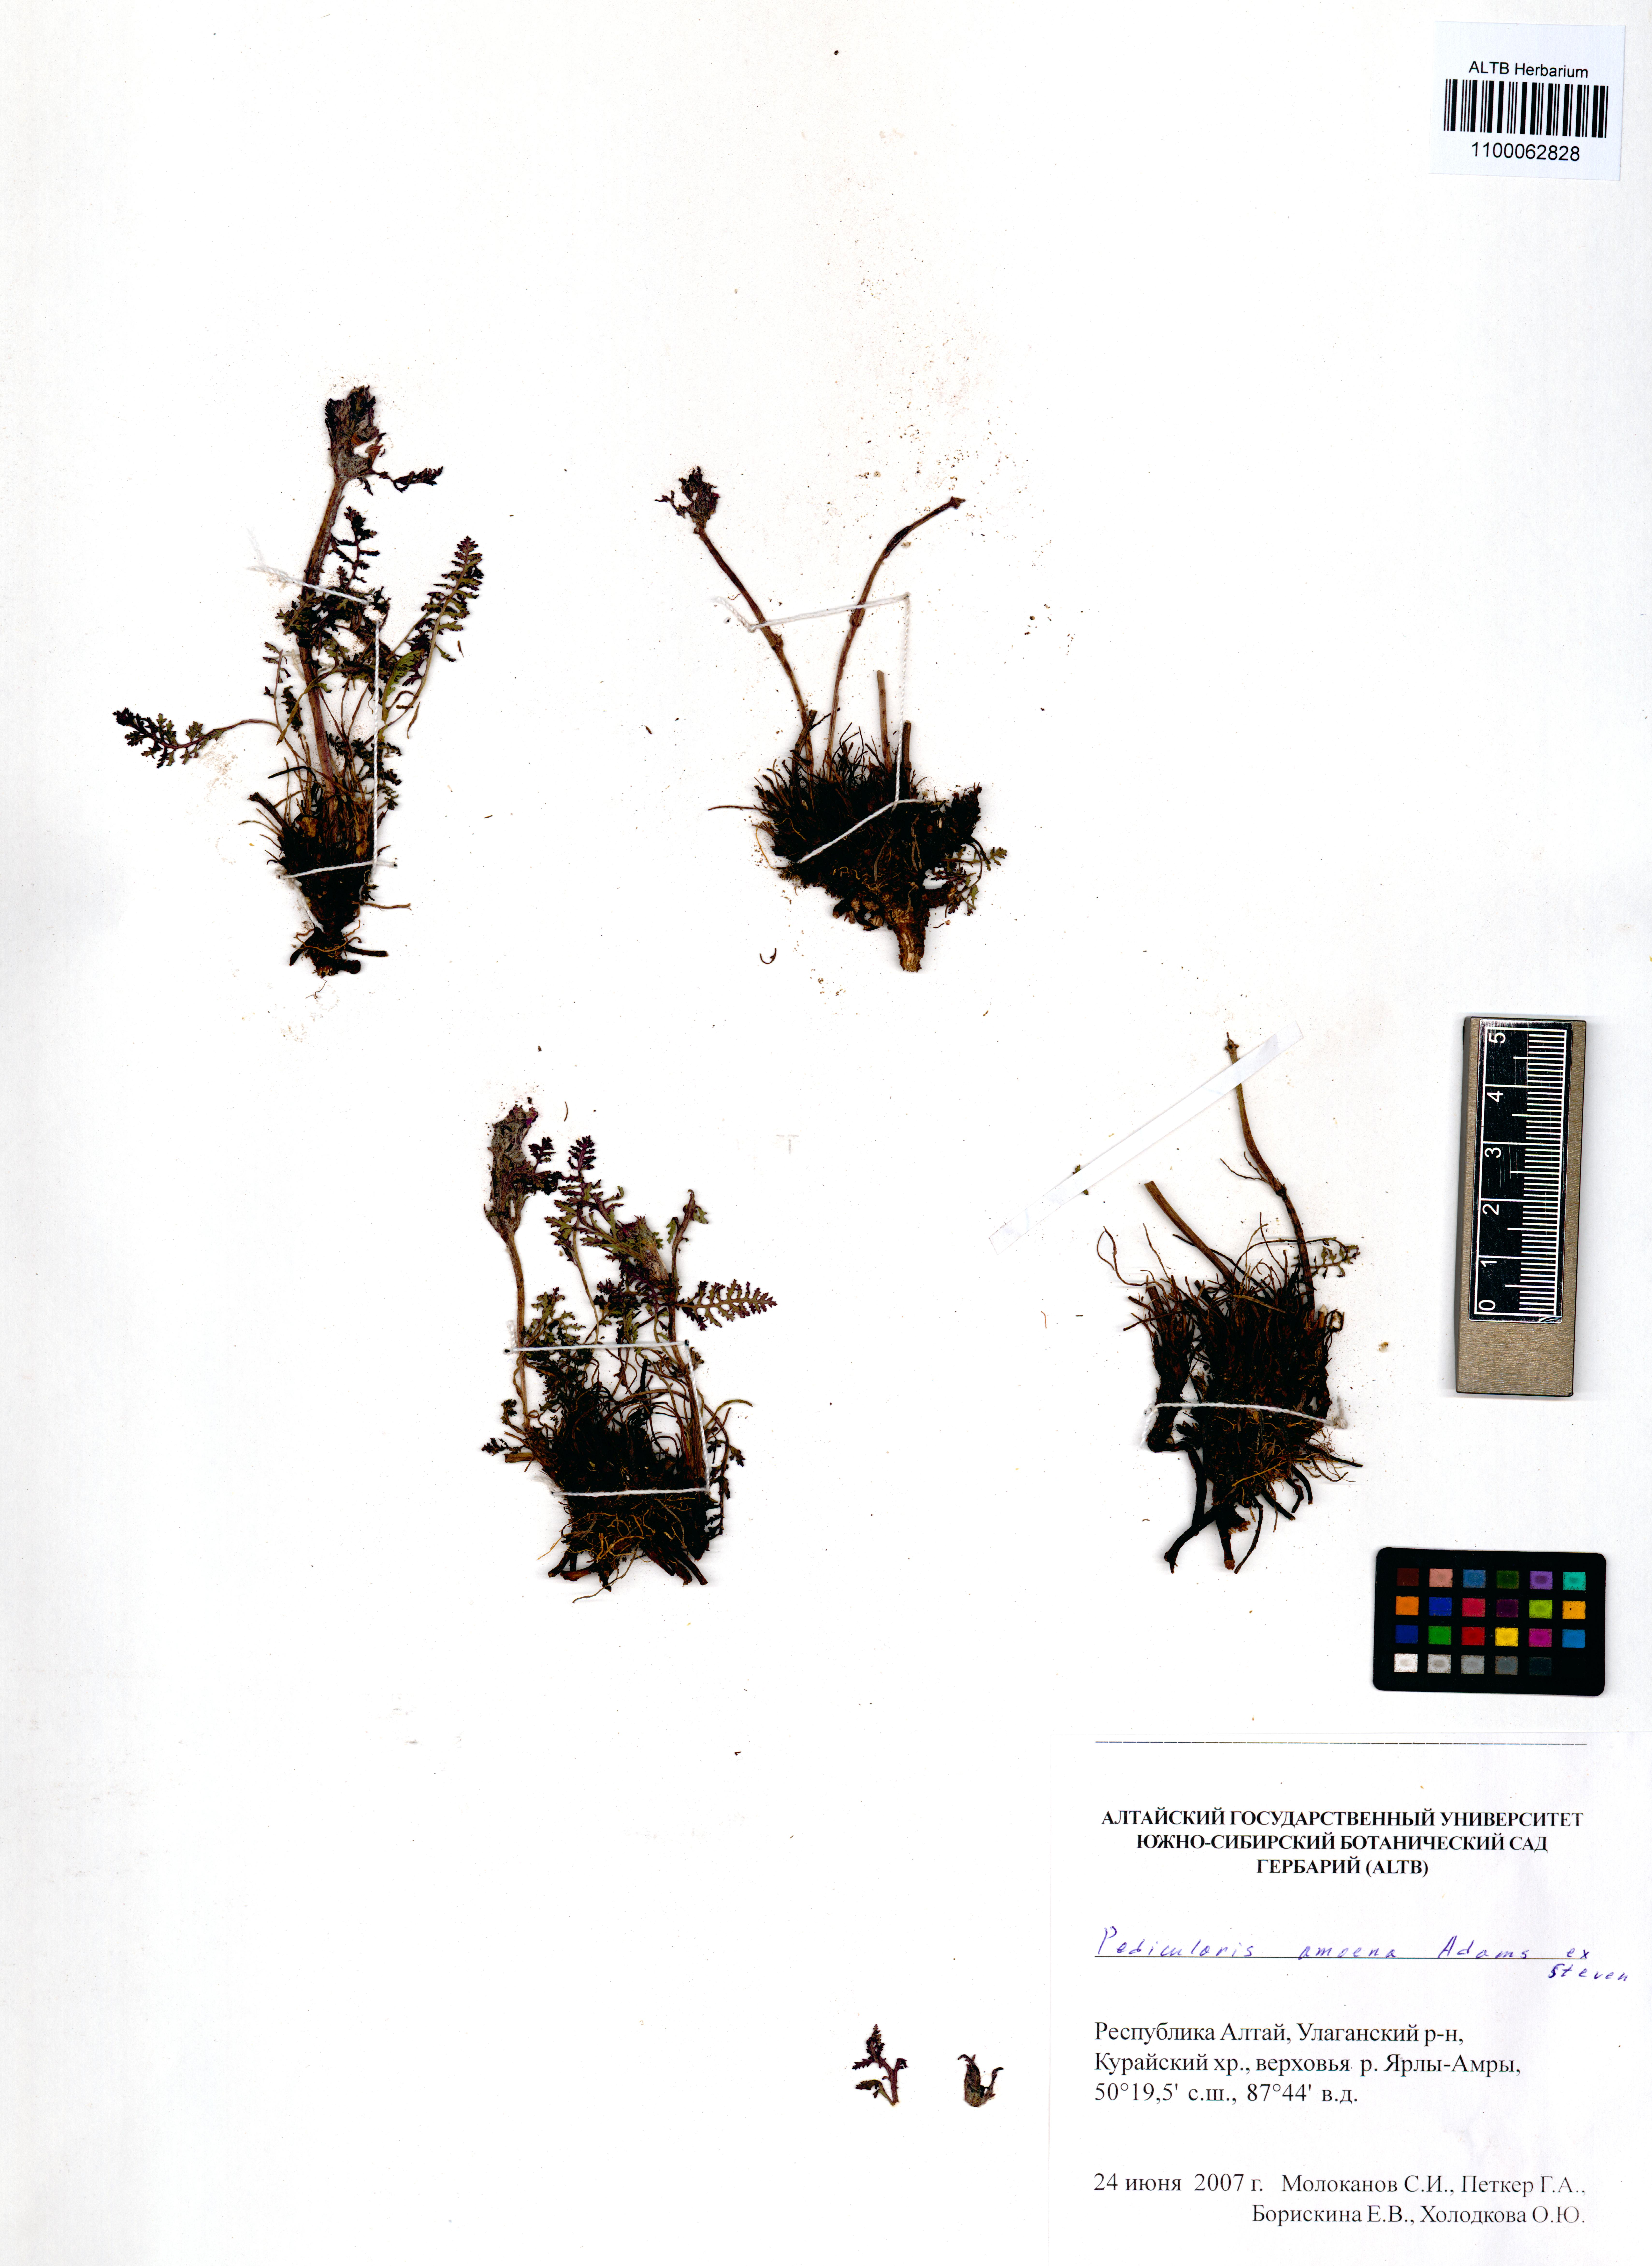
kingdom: Plantae
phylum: Tracheophyta
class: Magnoliopsida
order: Lamiales
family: Orobanchaceae
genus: Pedicularis
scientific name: Pedicularis amoena
